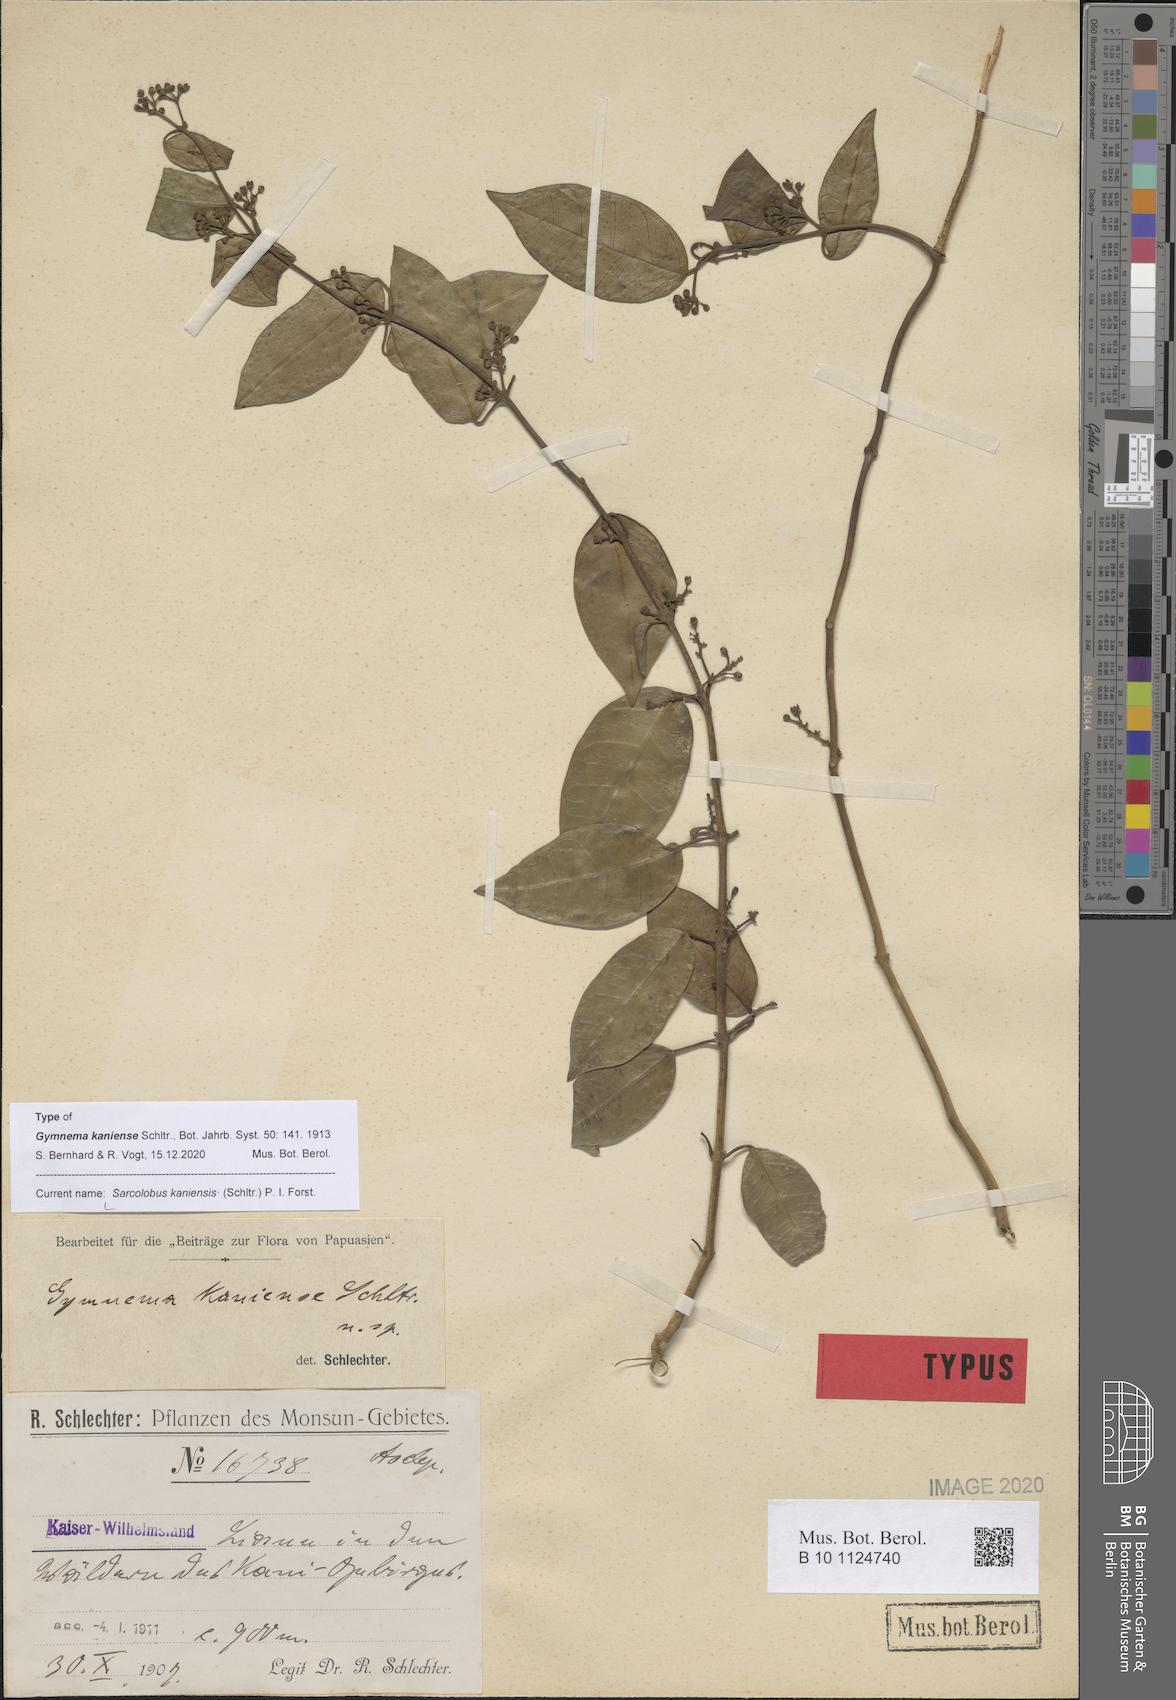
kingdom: Plantae
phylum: Tracheophyta
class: Magnoliopsida
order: Gentianales
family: Apocynaceae
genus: Sarcolobus
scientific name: Sarcolobus kaniensis
